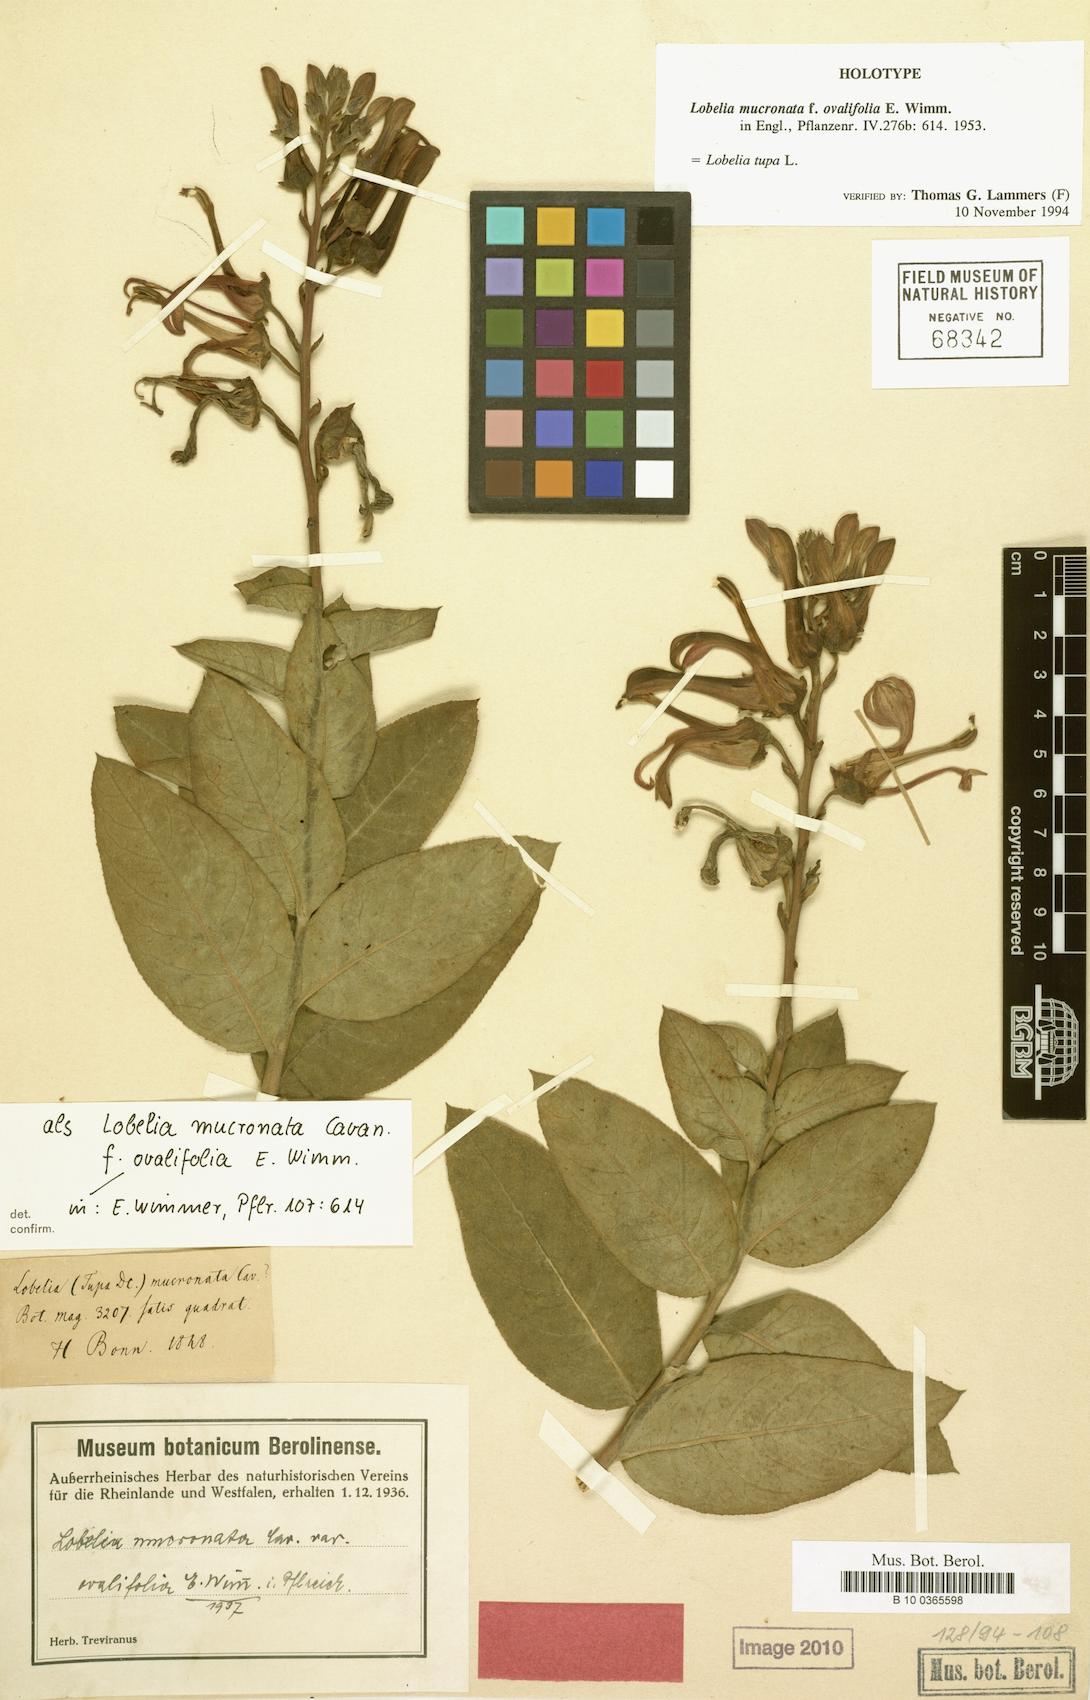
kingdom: Plantae
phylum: Tracheophyta
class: Magnoliopsida
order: Asterales
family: Campanulaceae
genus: Lobelia
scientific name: Lobelia tupa
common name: Devil's-tobacco
